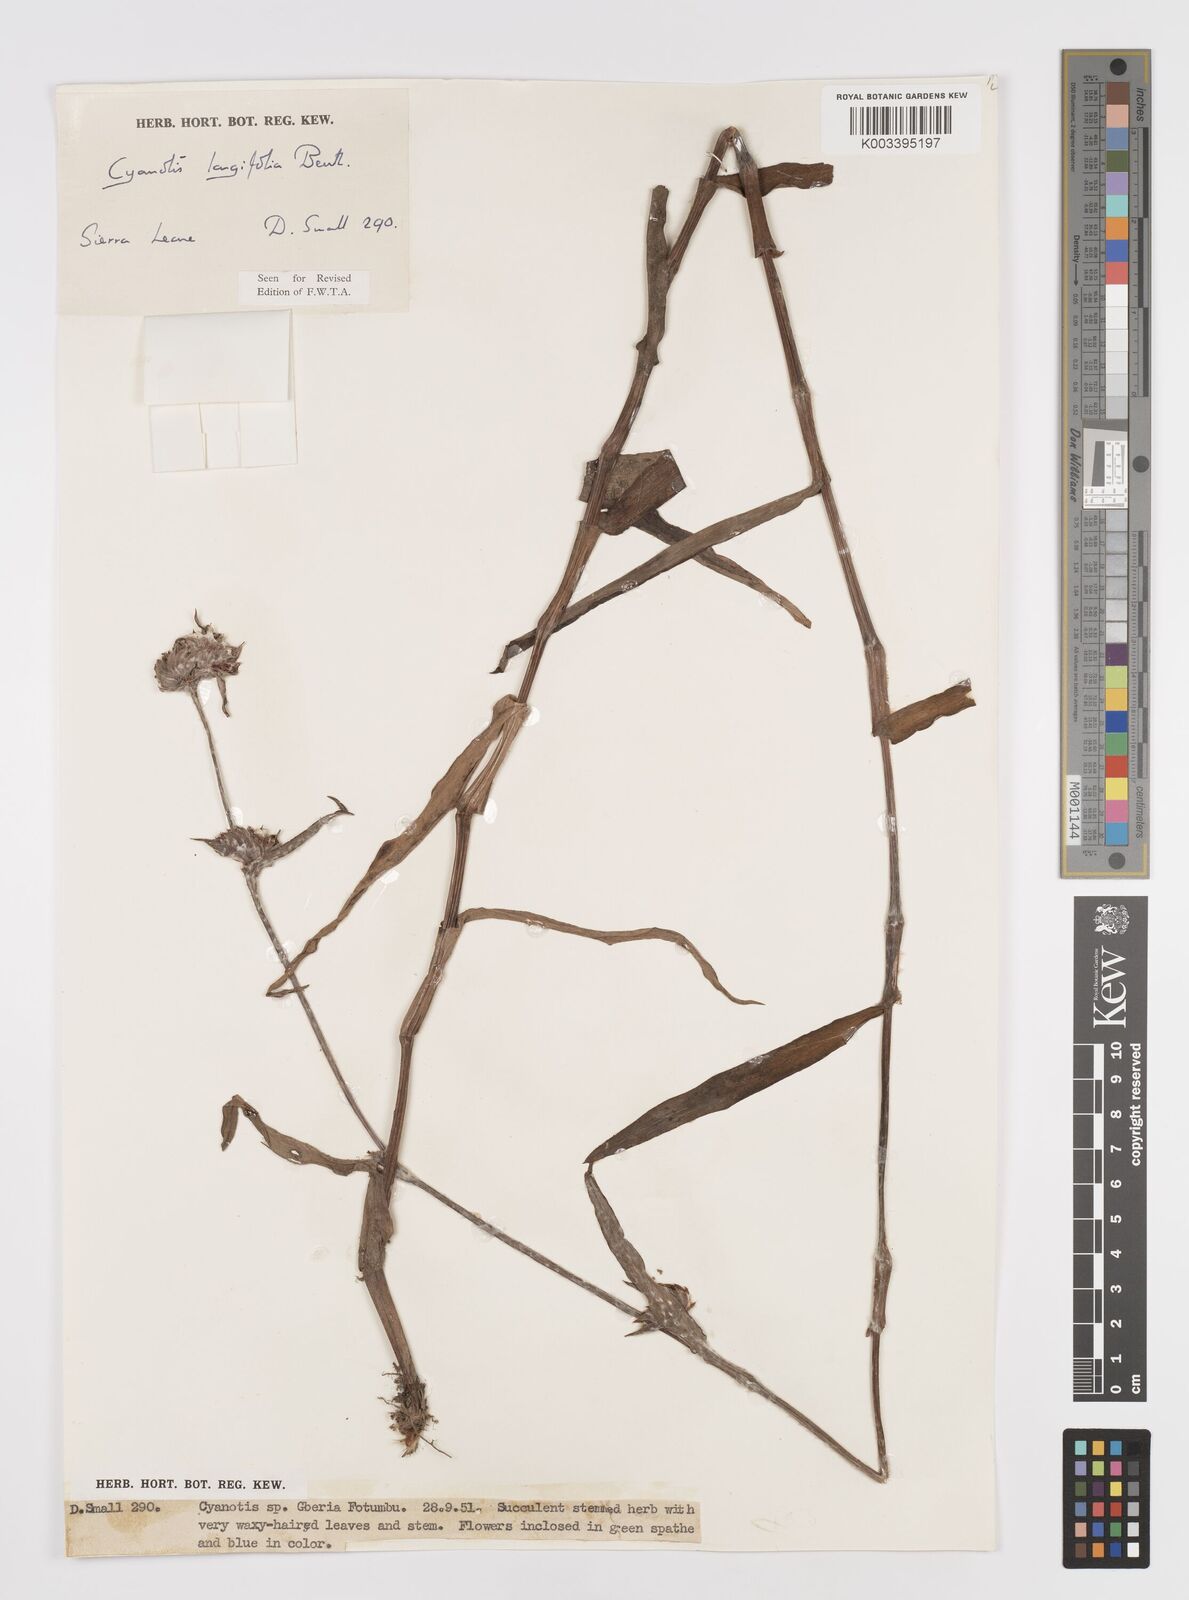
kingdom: Plantae
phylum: Tracheophyta
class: Liliopsida
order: Commelinales
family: Commelinaceae
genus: Cyanotis
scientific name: Cyanotis
